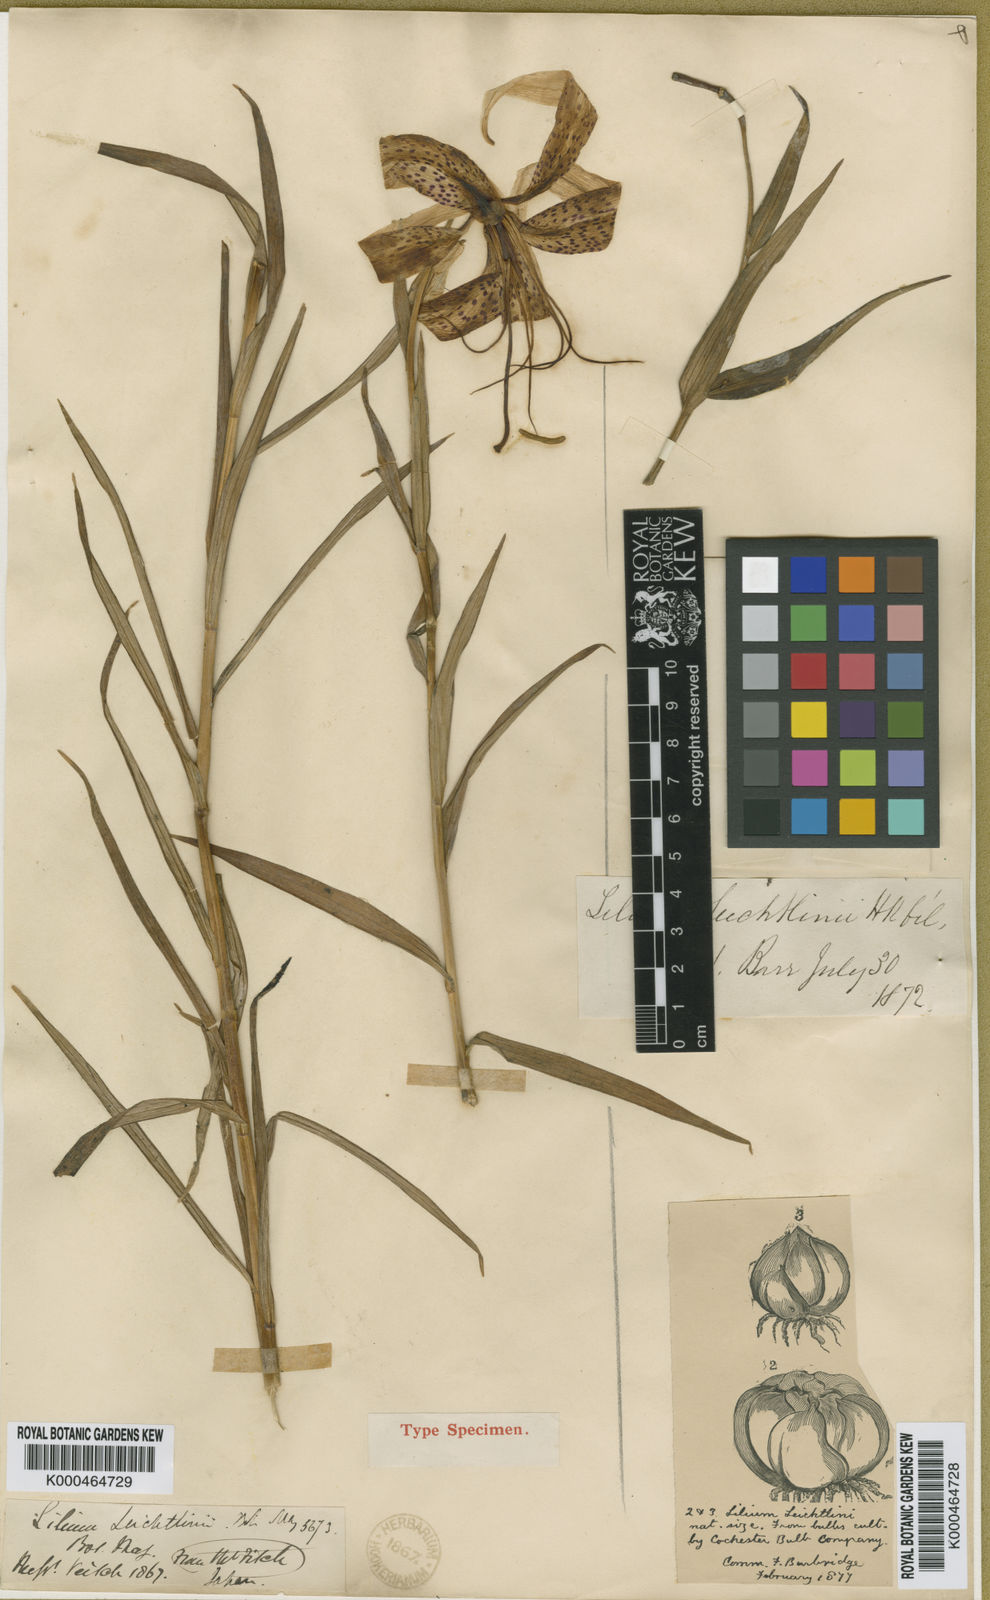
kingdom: Plantae
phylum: Tracheophyta
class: Liliopsida
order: Liliales
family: Liliaceae
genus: Lilium
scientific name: Lilium leichtlinii
